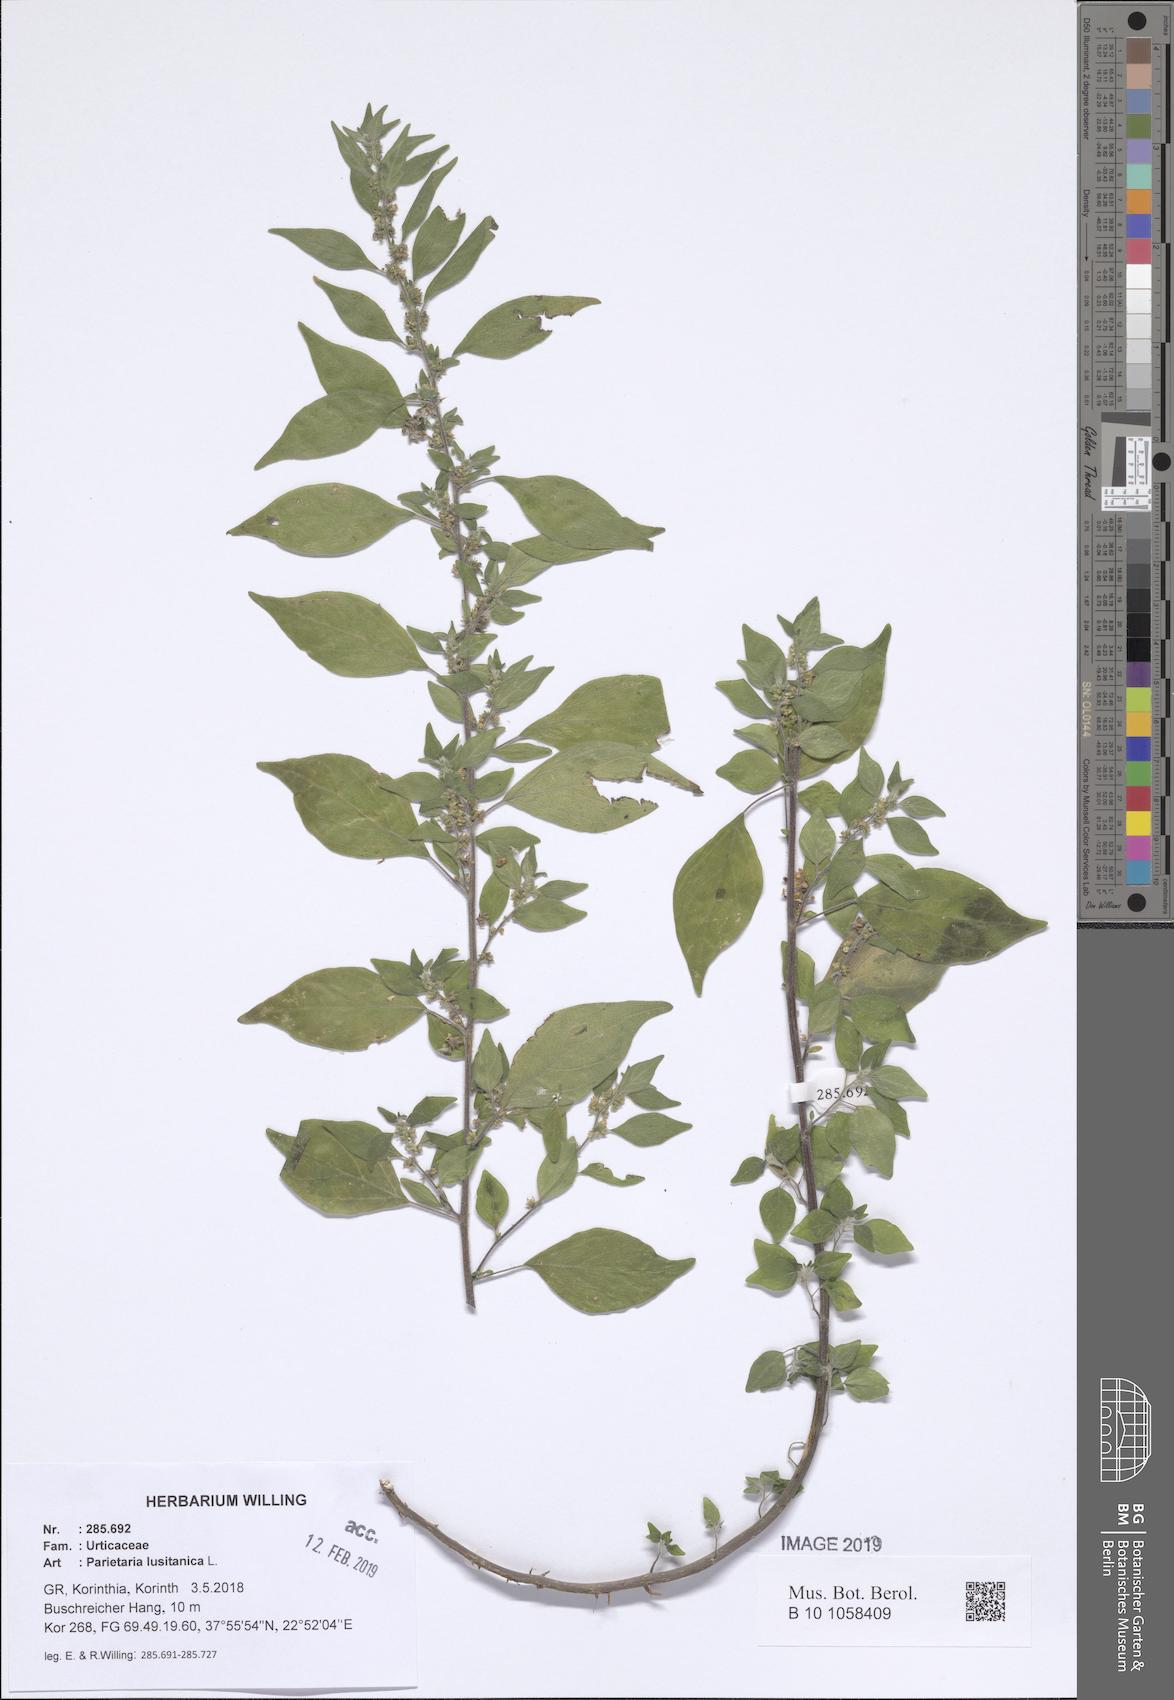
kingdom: Plantae
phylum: Tracheophyta
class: Magnoliopsida
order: Rosales
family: Urticaceae
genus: Parietaria
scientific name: Parietaria lusitanica
